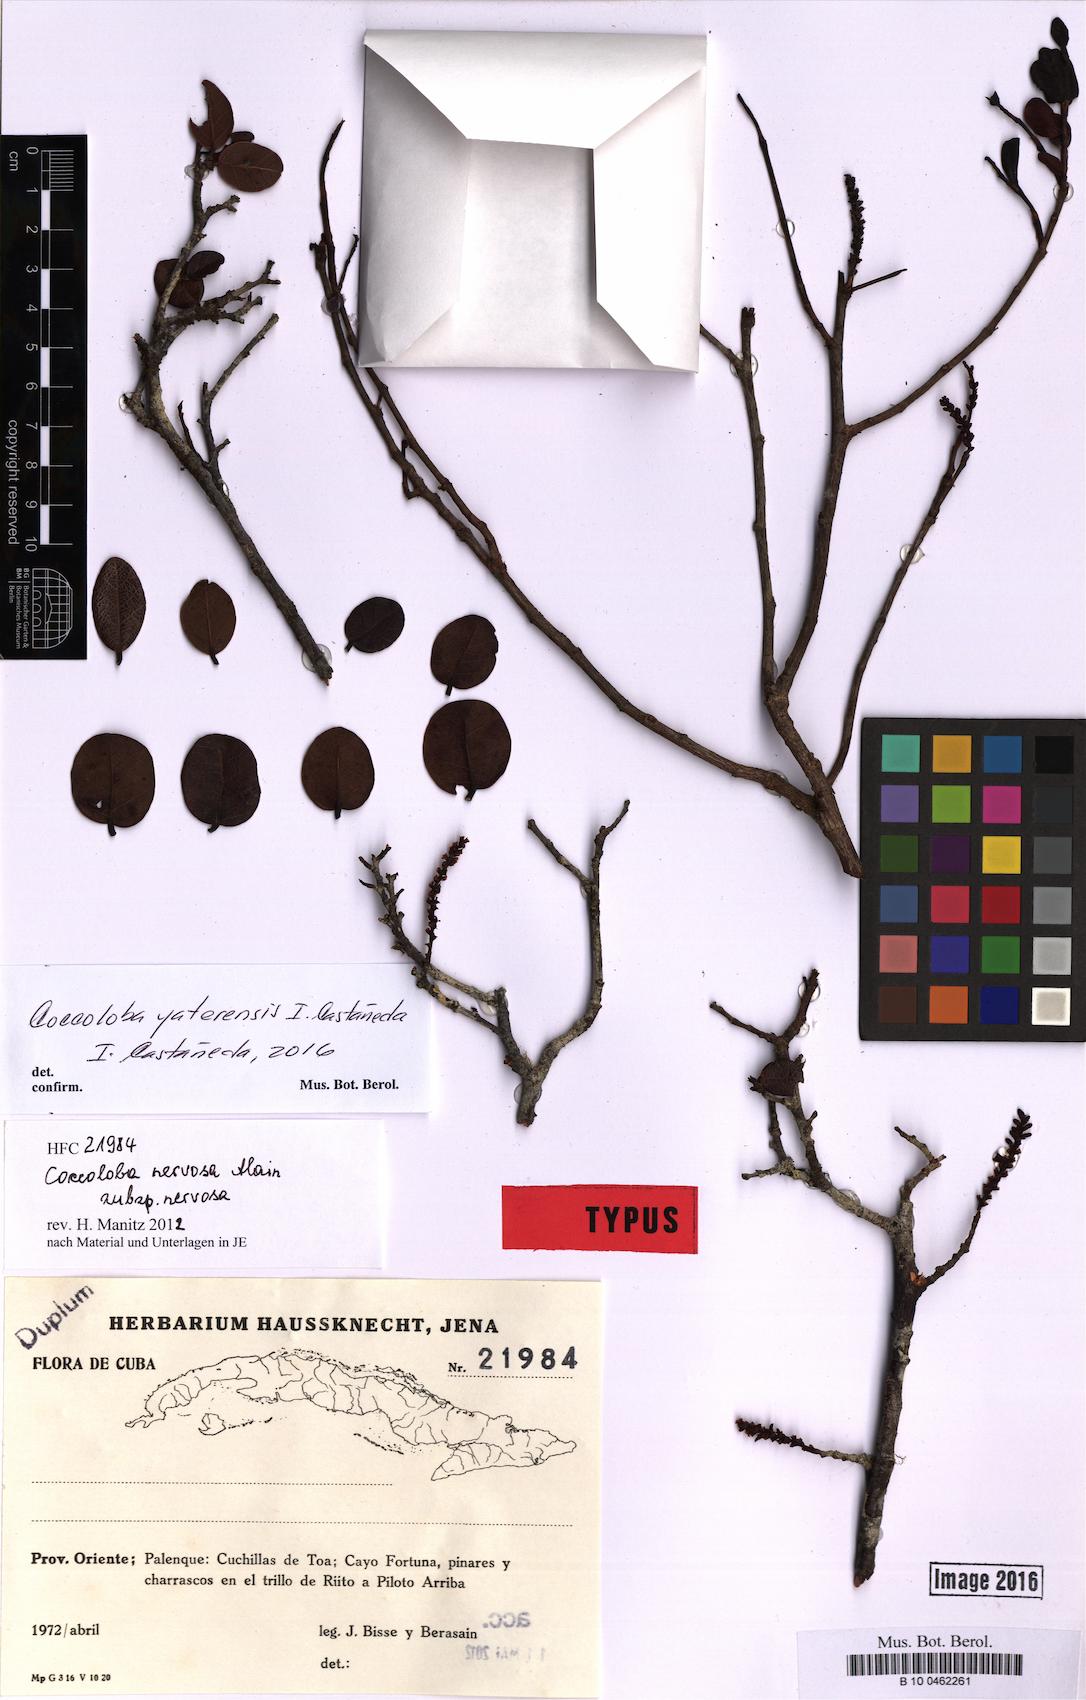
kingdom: Plantae
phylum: Tracheophyta
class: Magnoliopsida
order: Caryophyllales
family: Polygonaceae
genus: Coccoloba
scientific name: Coccoloba yaterensis
